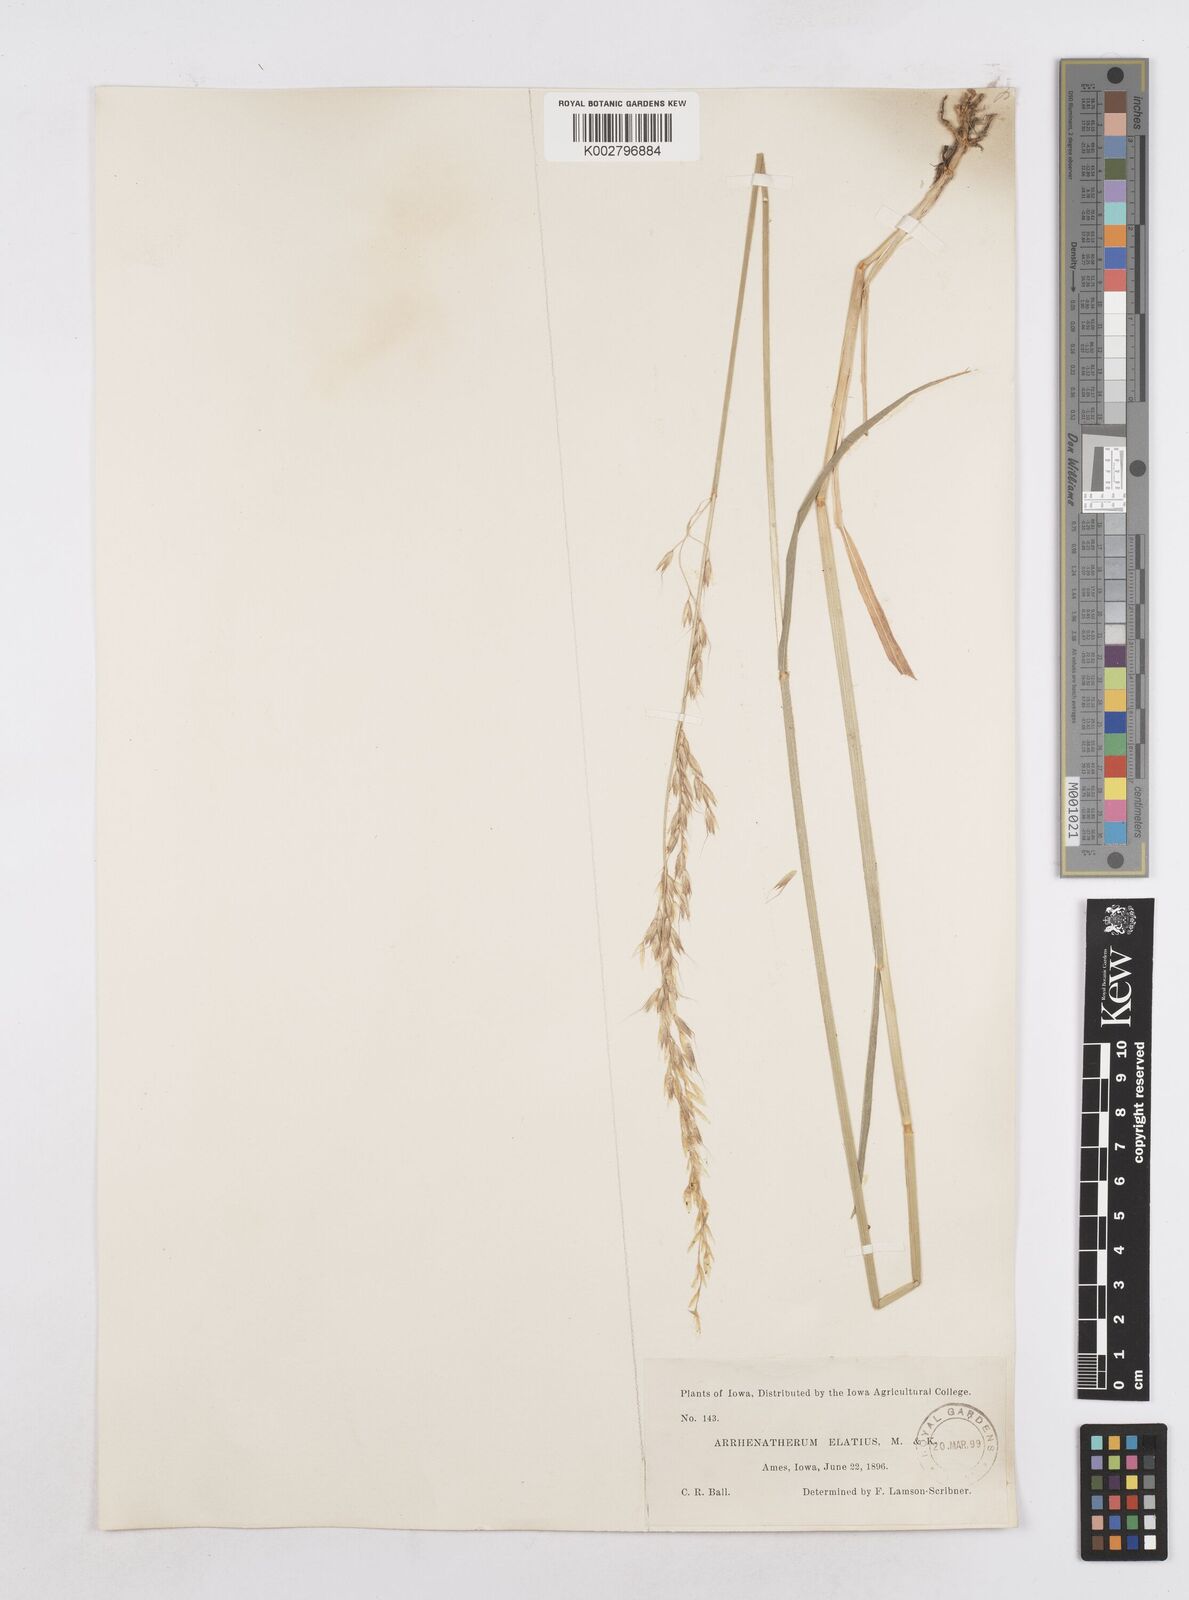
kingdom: Plantae
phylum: Tracheophyta
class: Liliopsida
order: Poales
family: Poaceae
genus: Arrhenatherum
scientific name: Arrhenatherum elatius
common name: Tall oatgrass
